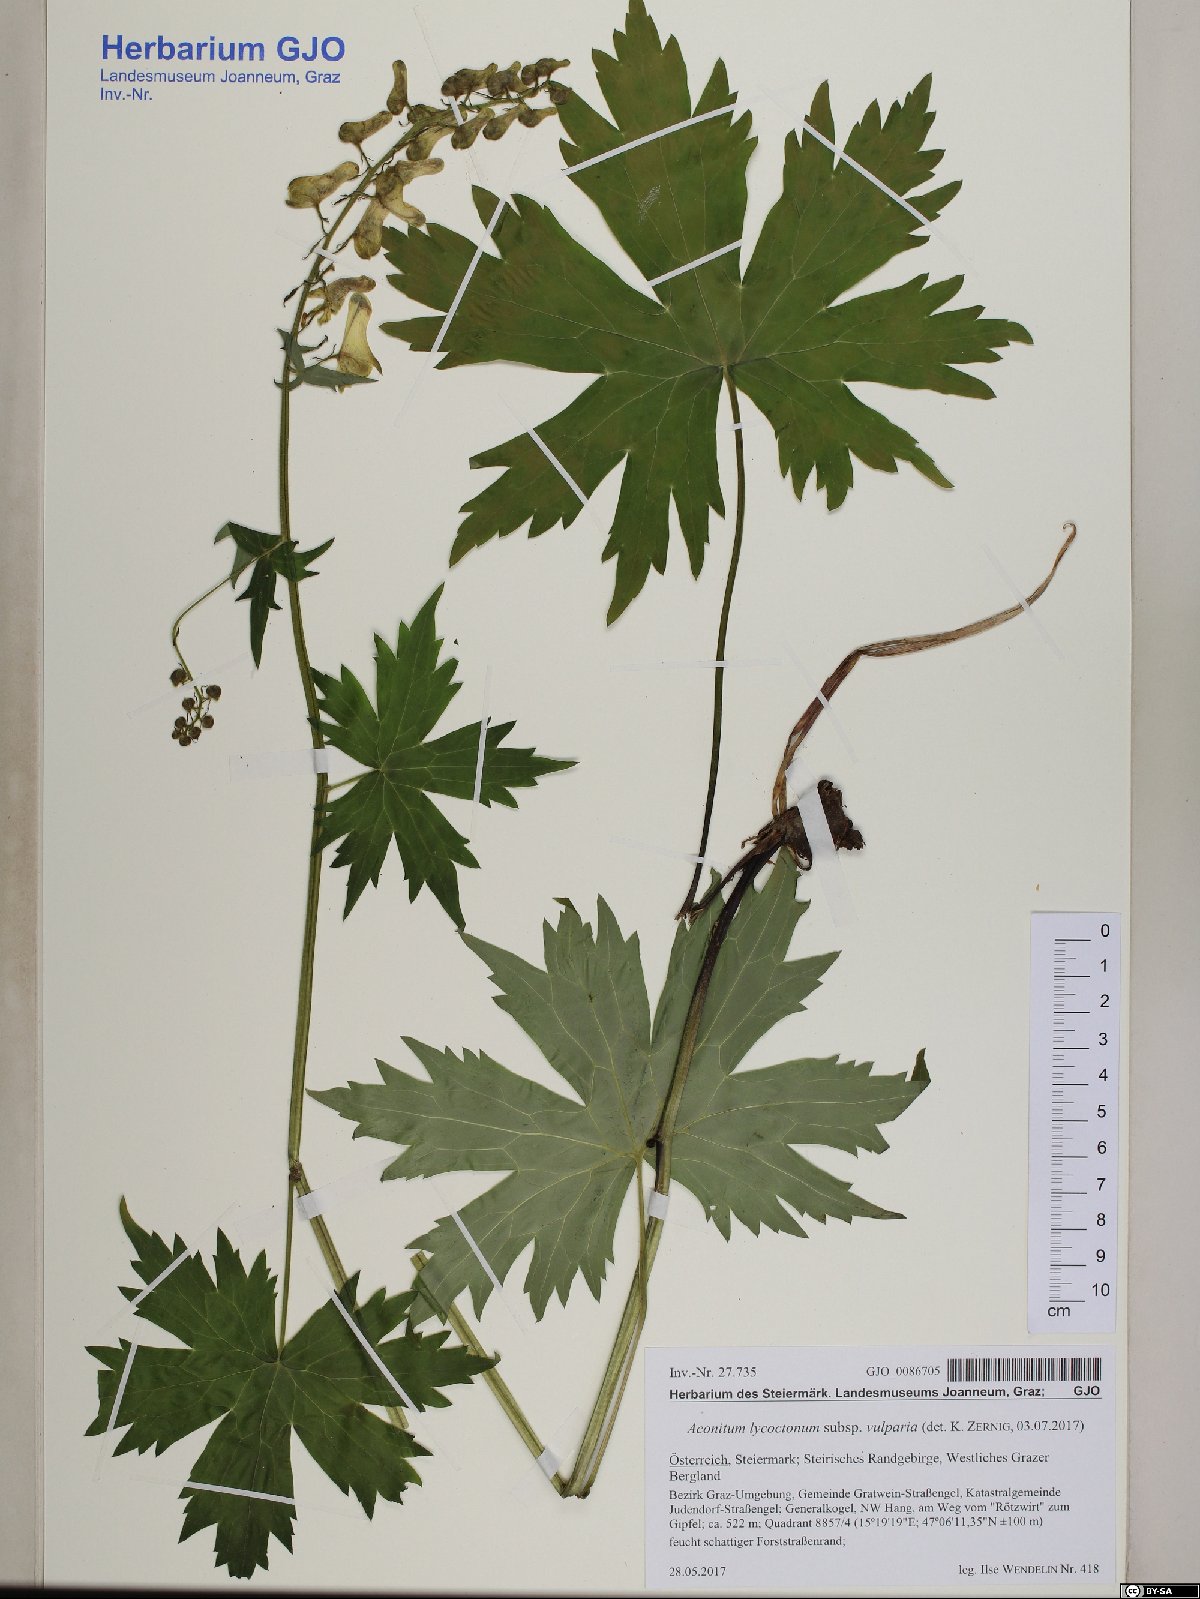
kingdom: Plantae
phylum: Tracheophyta
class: Magnoliopsida
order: Ranunculales
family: Ranunculaceae
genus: Aconitum
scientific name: Aconitum lycoctonum
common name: Wolf's-bane
